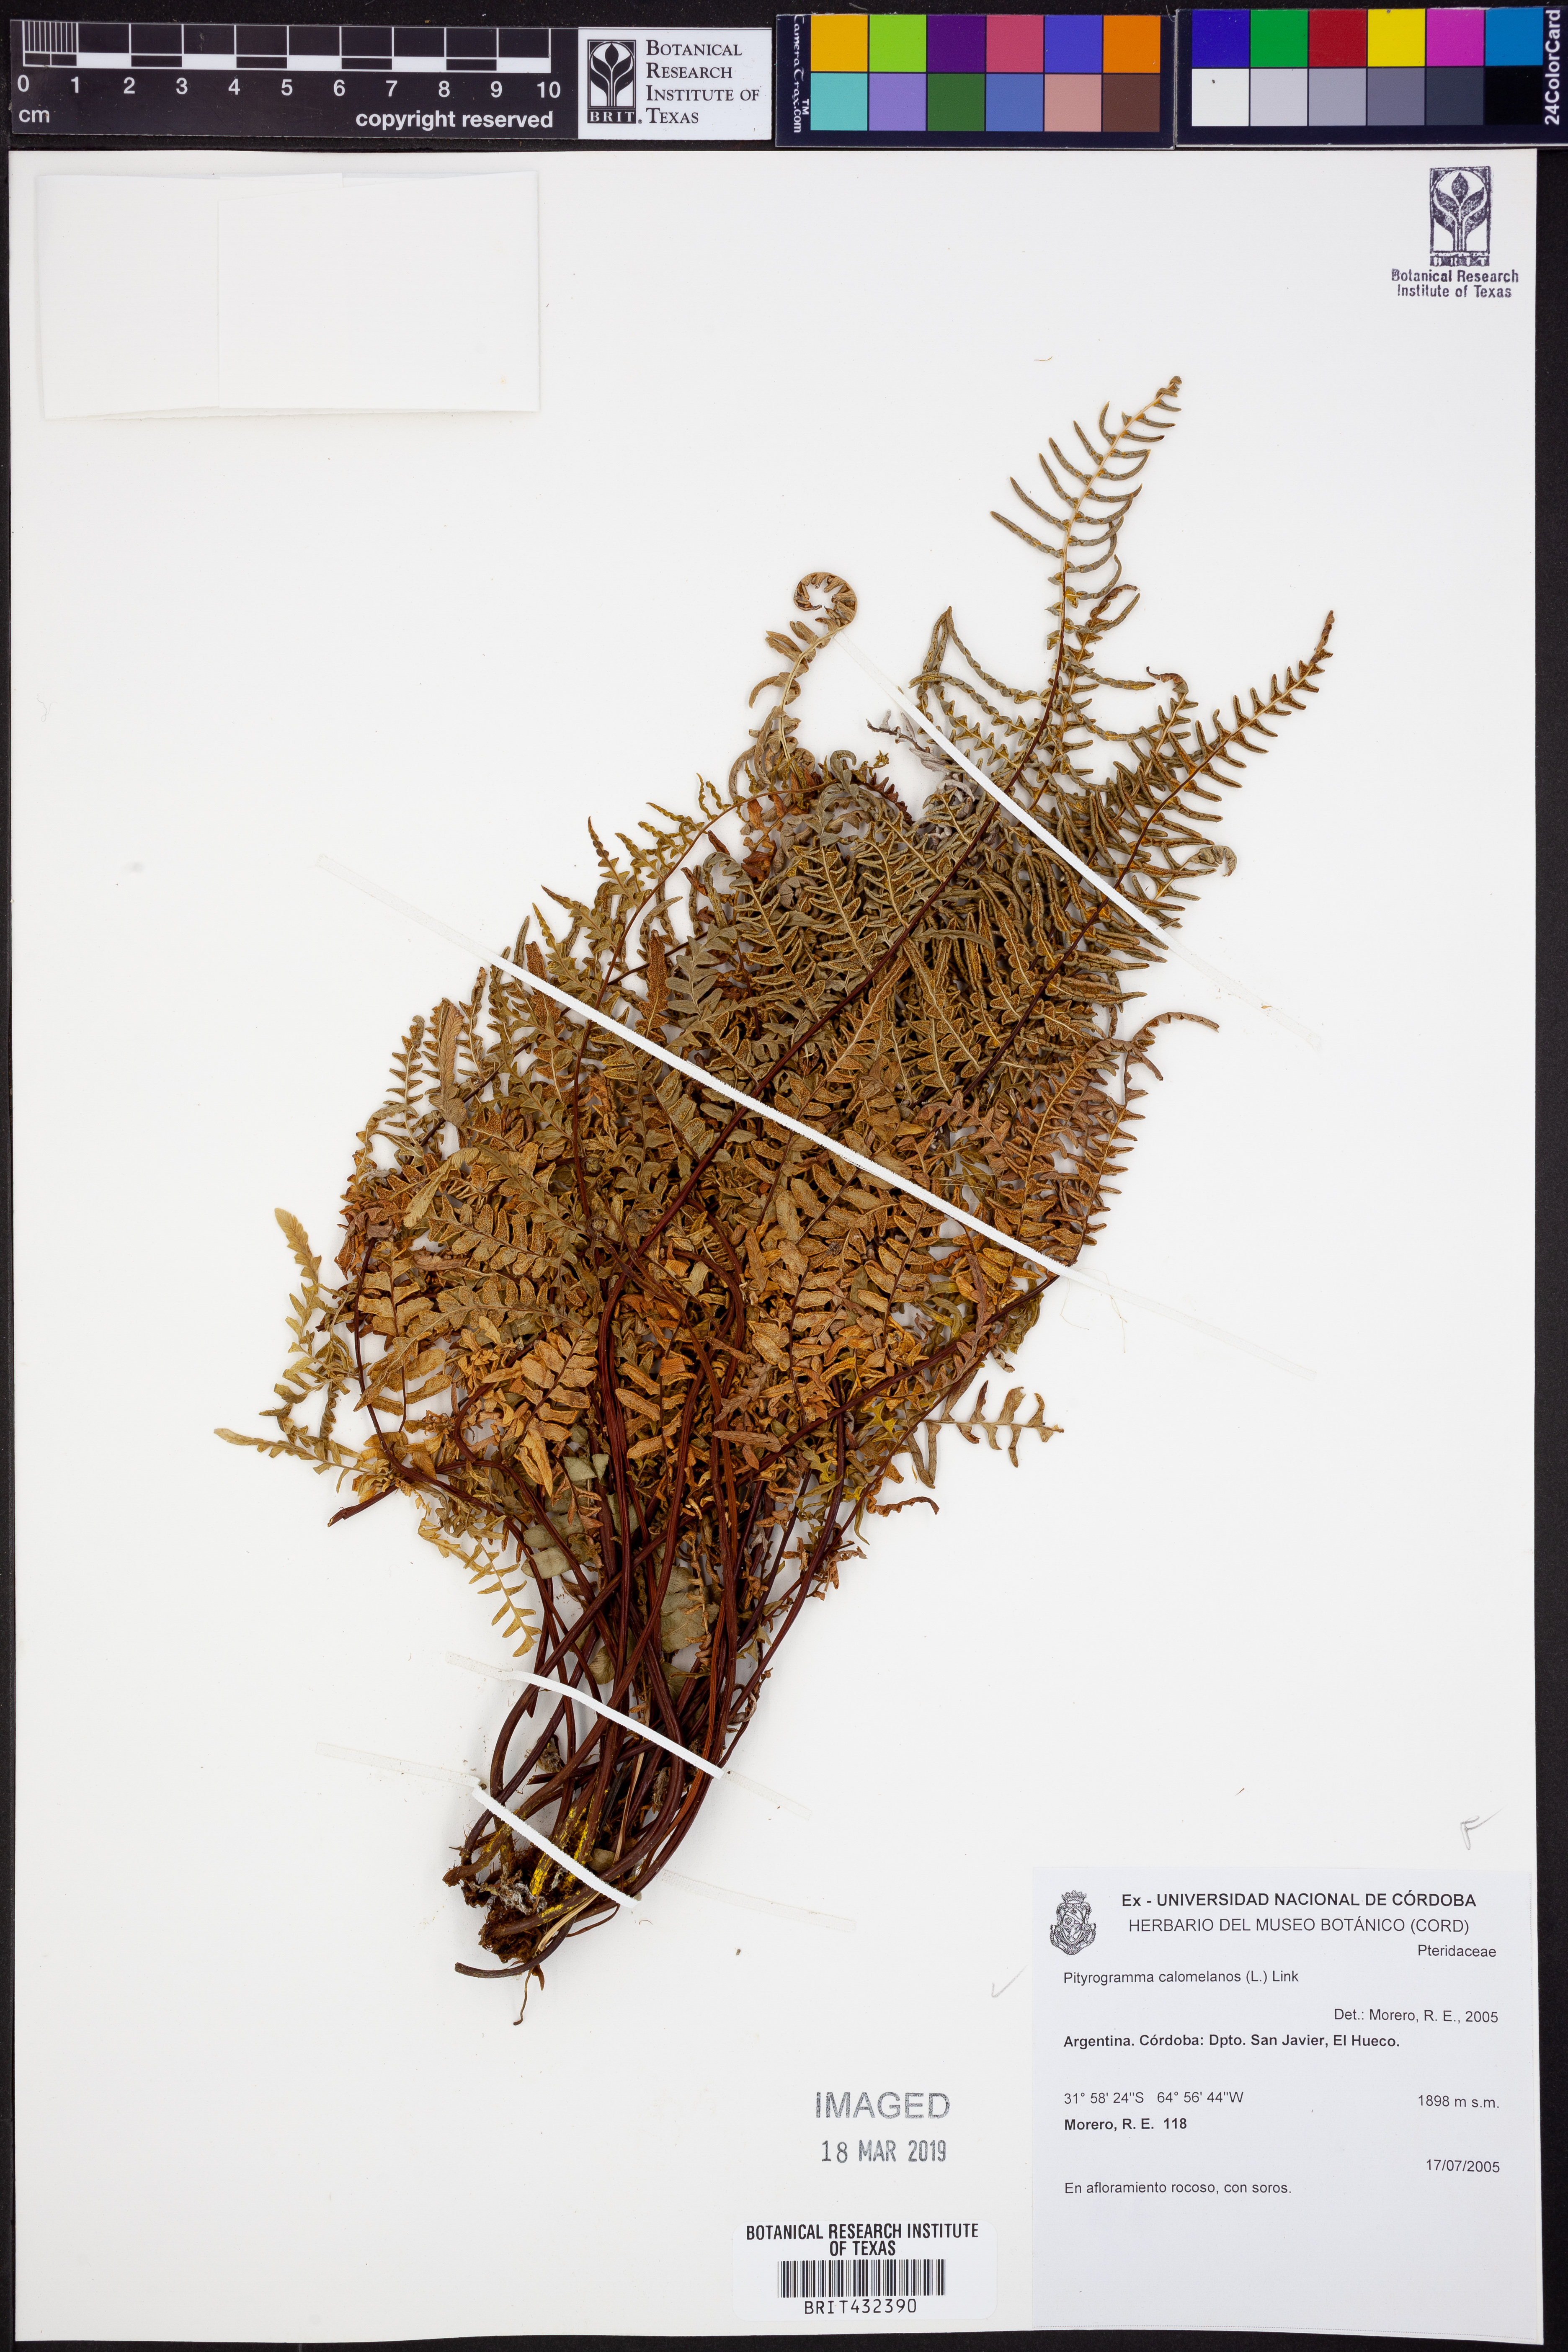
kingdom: Plantae
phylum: Tracheophyta
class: Polypodiopsida
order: Polypodiales
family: Pteridaceae
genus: Pityrogramma
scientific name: Pityrogramma calomelanos
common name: Dixie silverback fern
